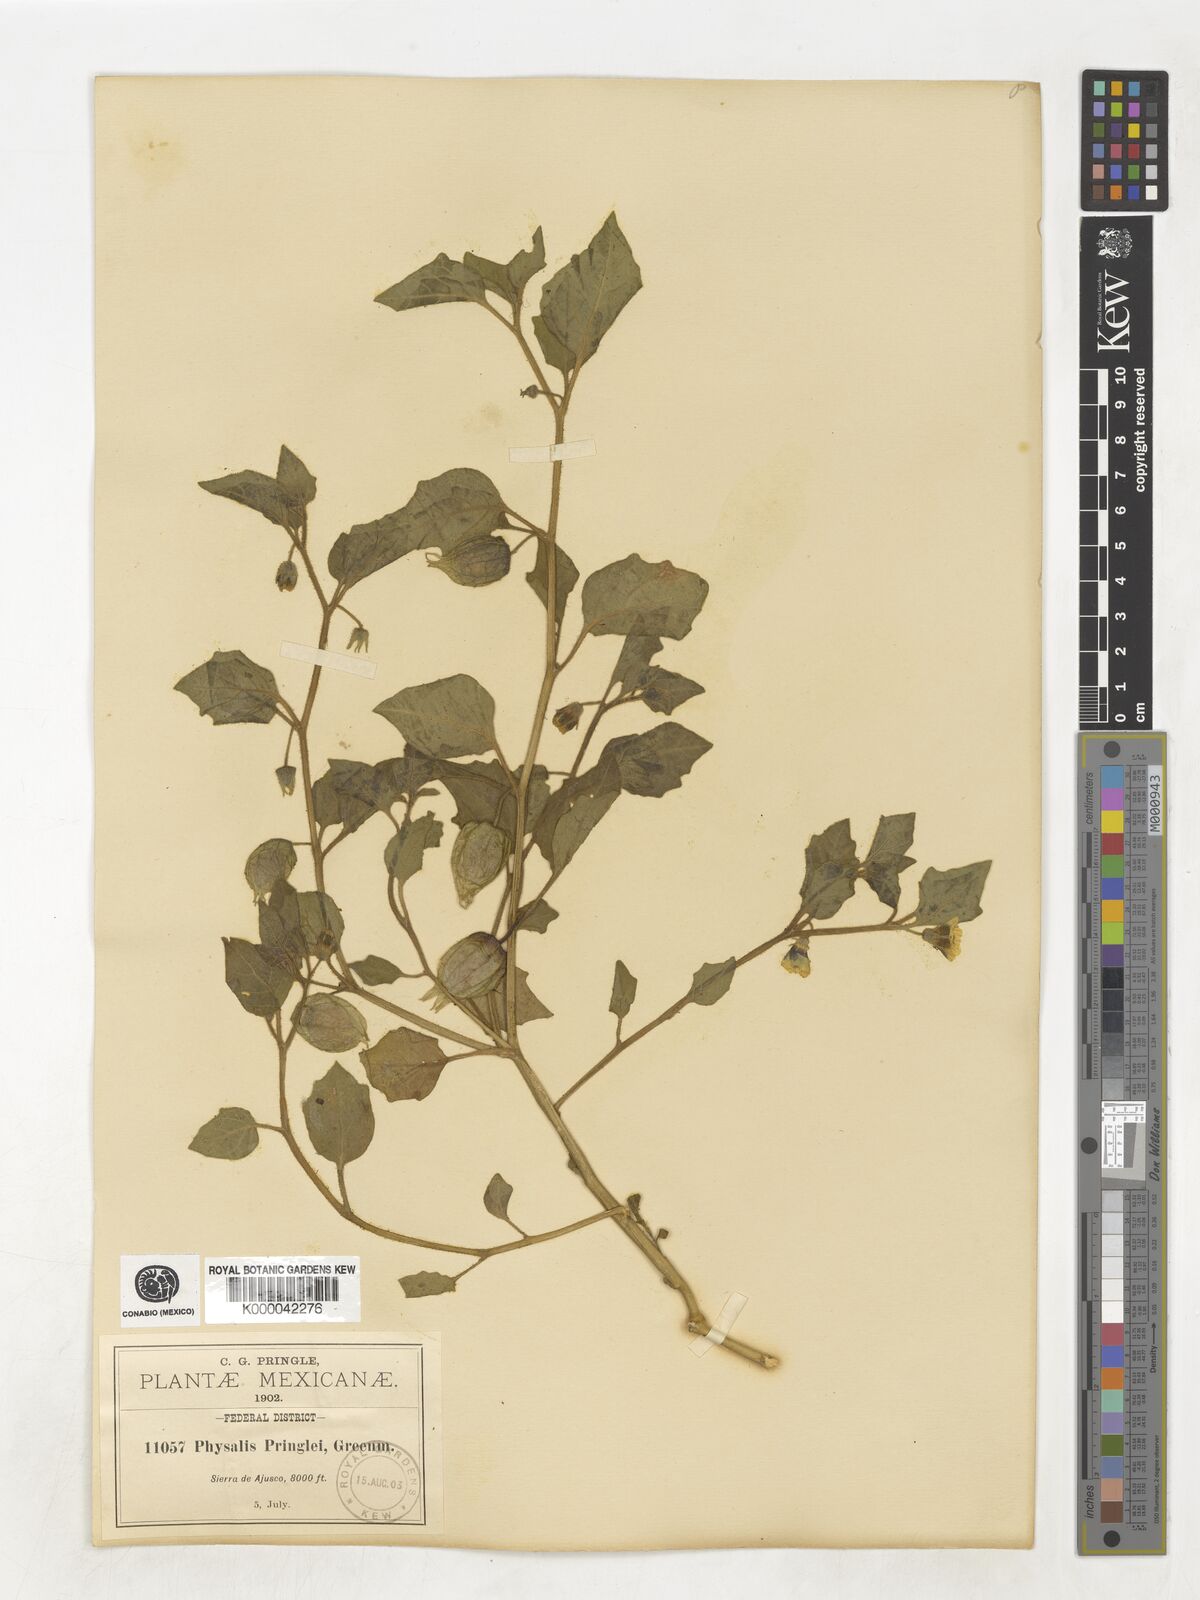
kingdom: Plantae
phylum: Tracheophyta
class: Magnoliopsida
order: Solanales
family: Solanaceae
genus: Physalis
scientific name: Physalis pringlei
